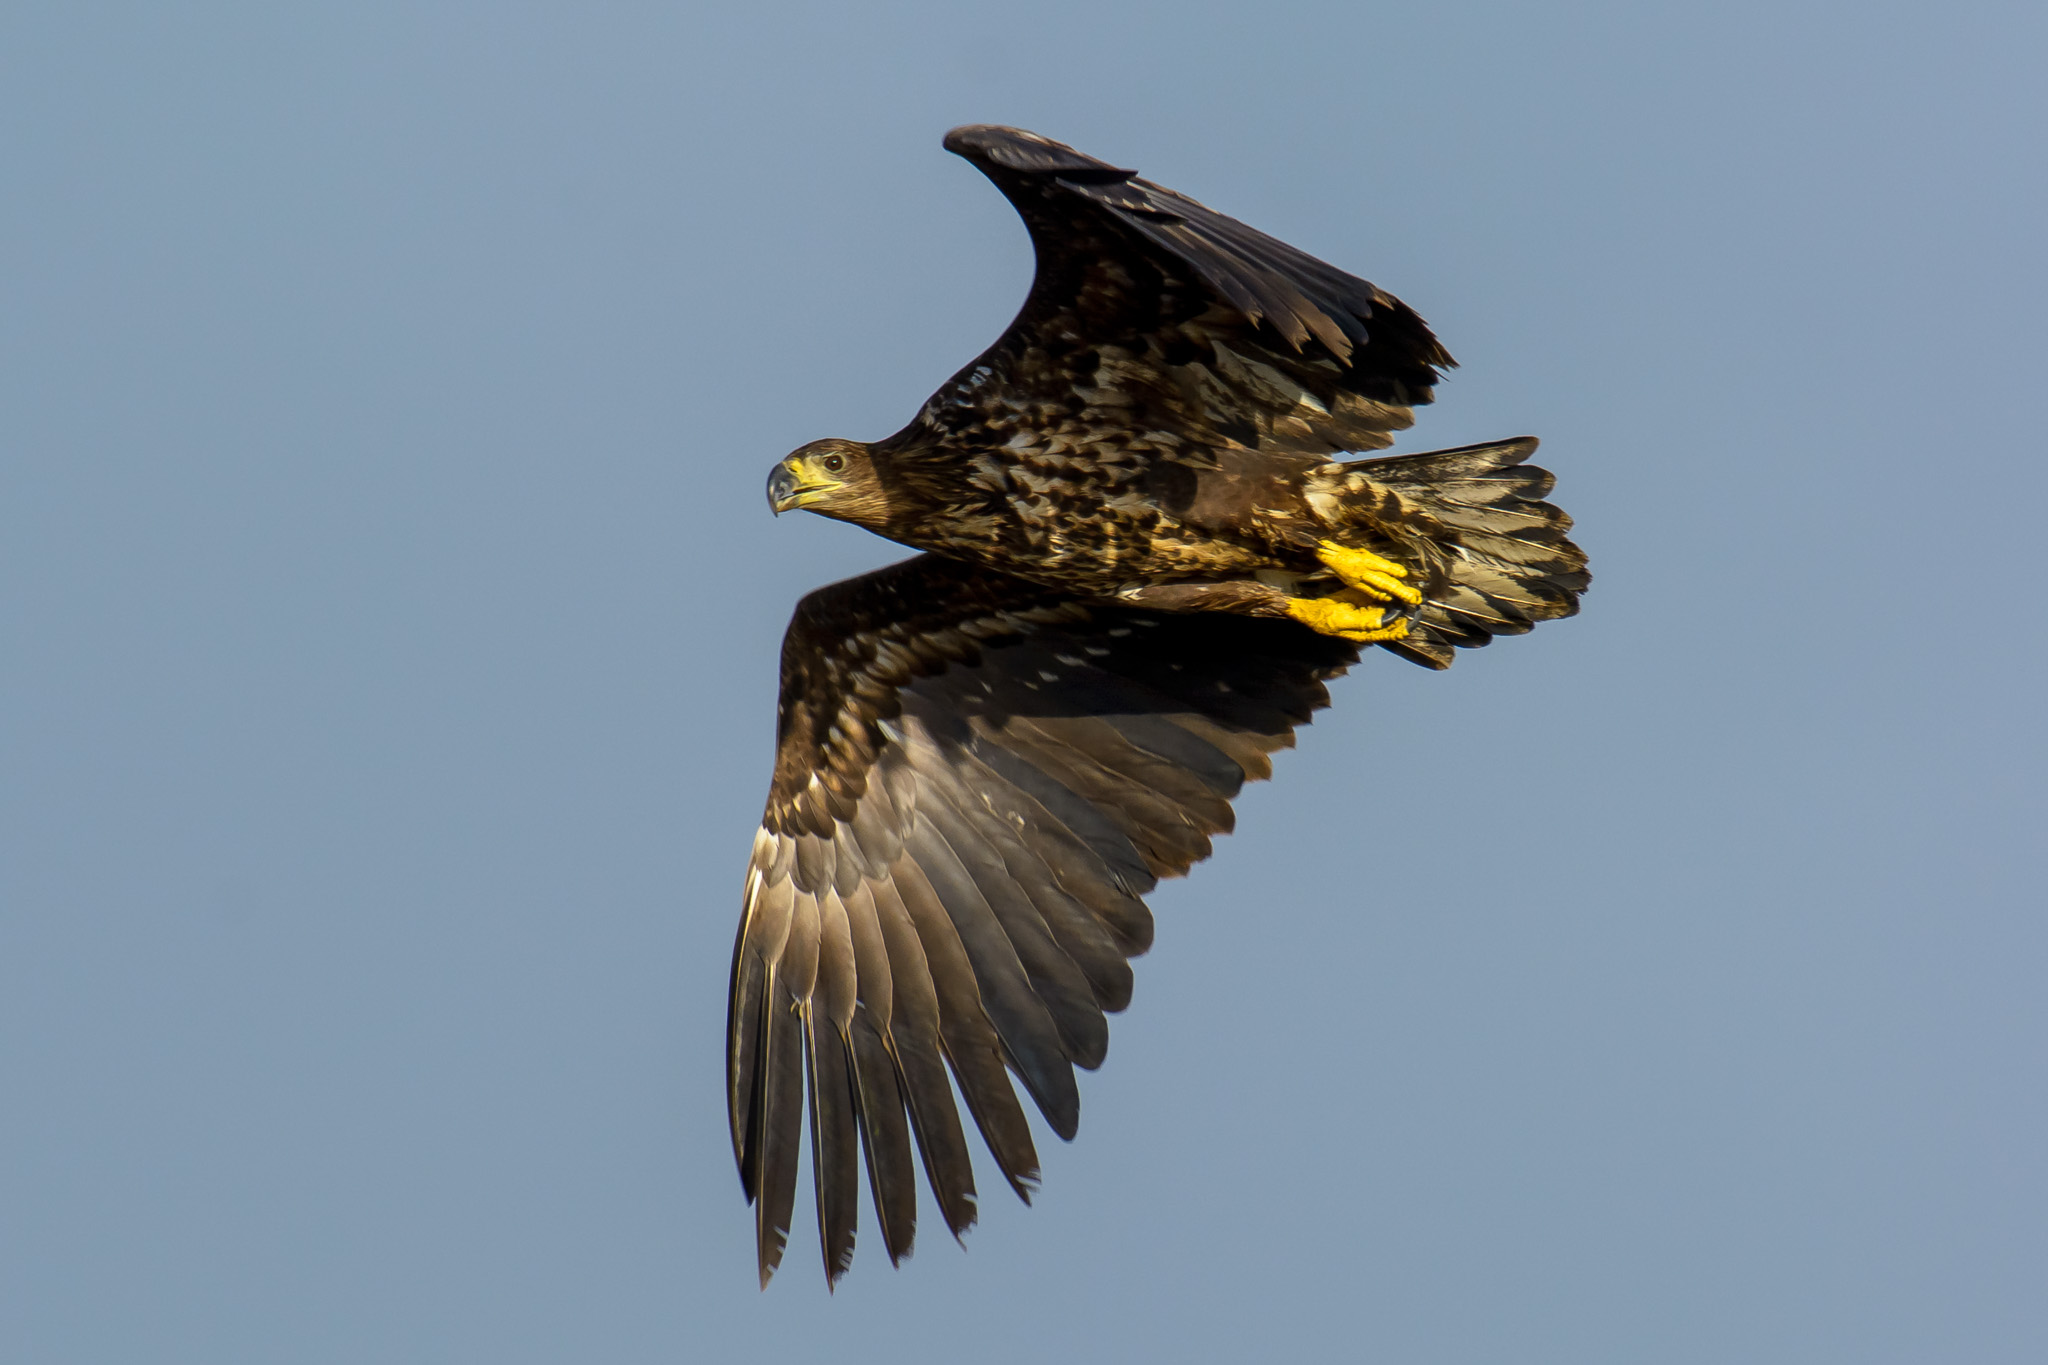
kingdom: Animalia
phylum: Chordata
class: Aves
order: Accipitriformes
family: Accipitridae
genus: Haliaeetus
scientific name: Haliaeetus albicilla
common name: Havørn
